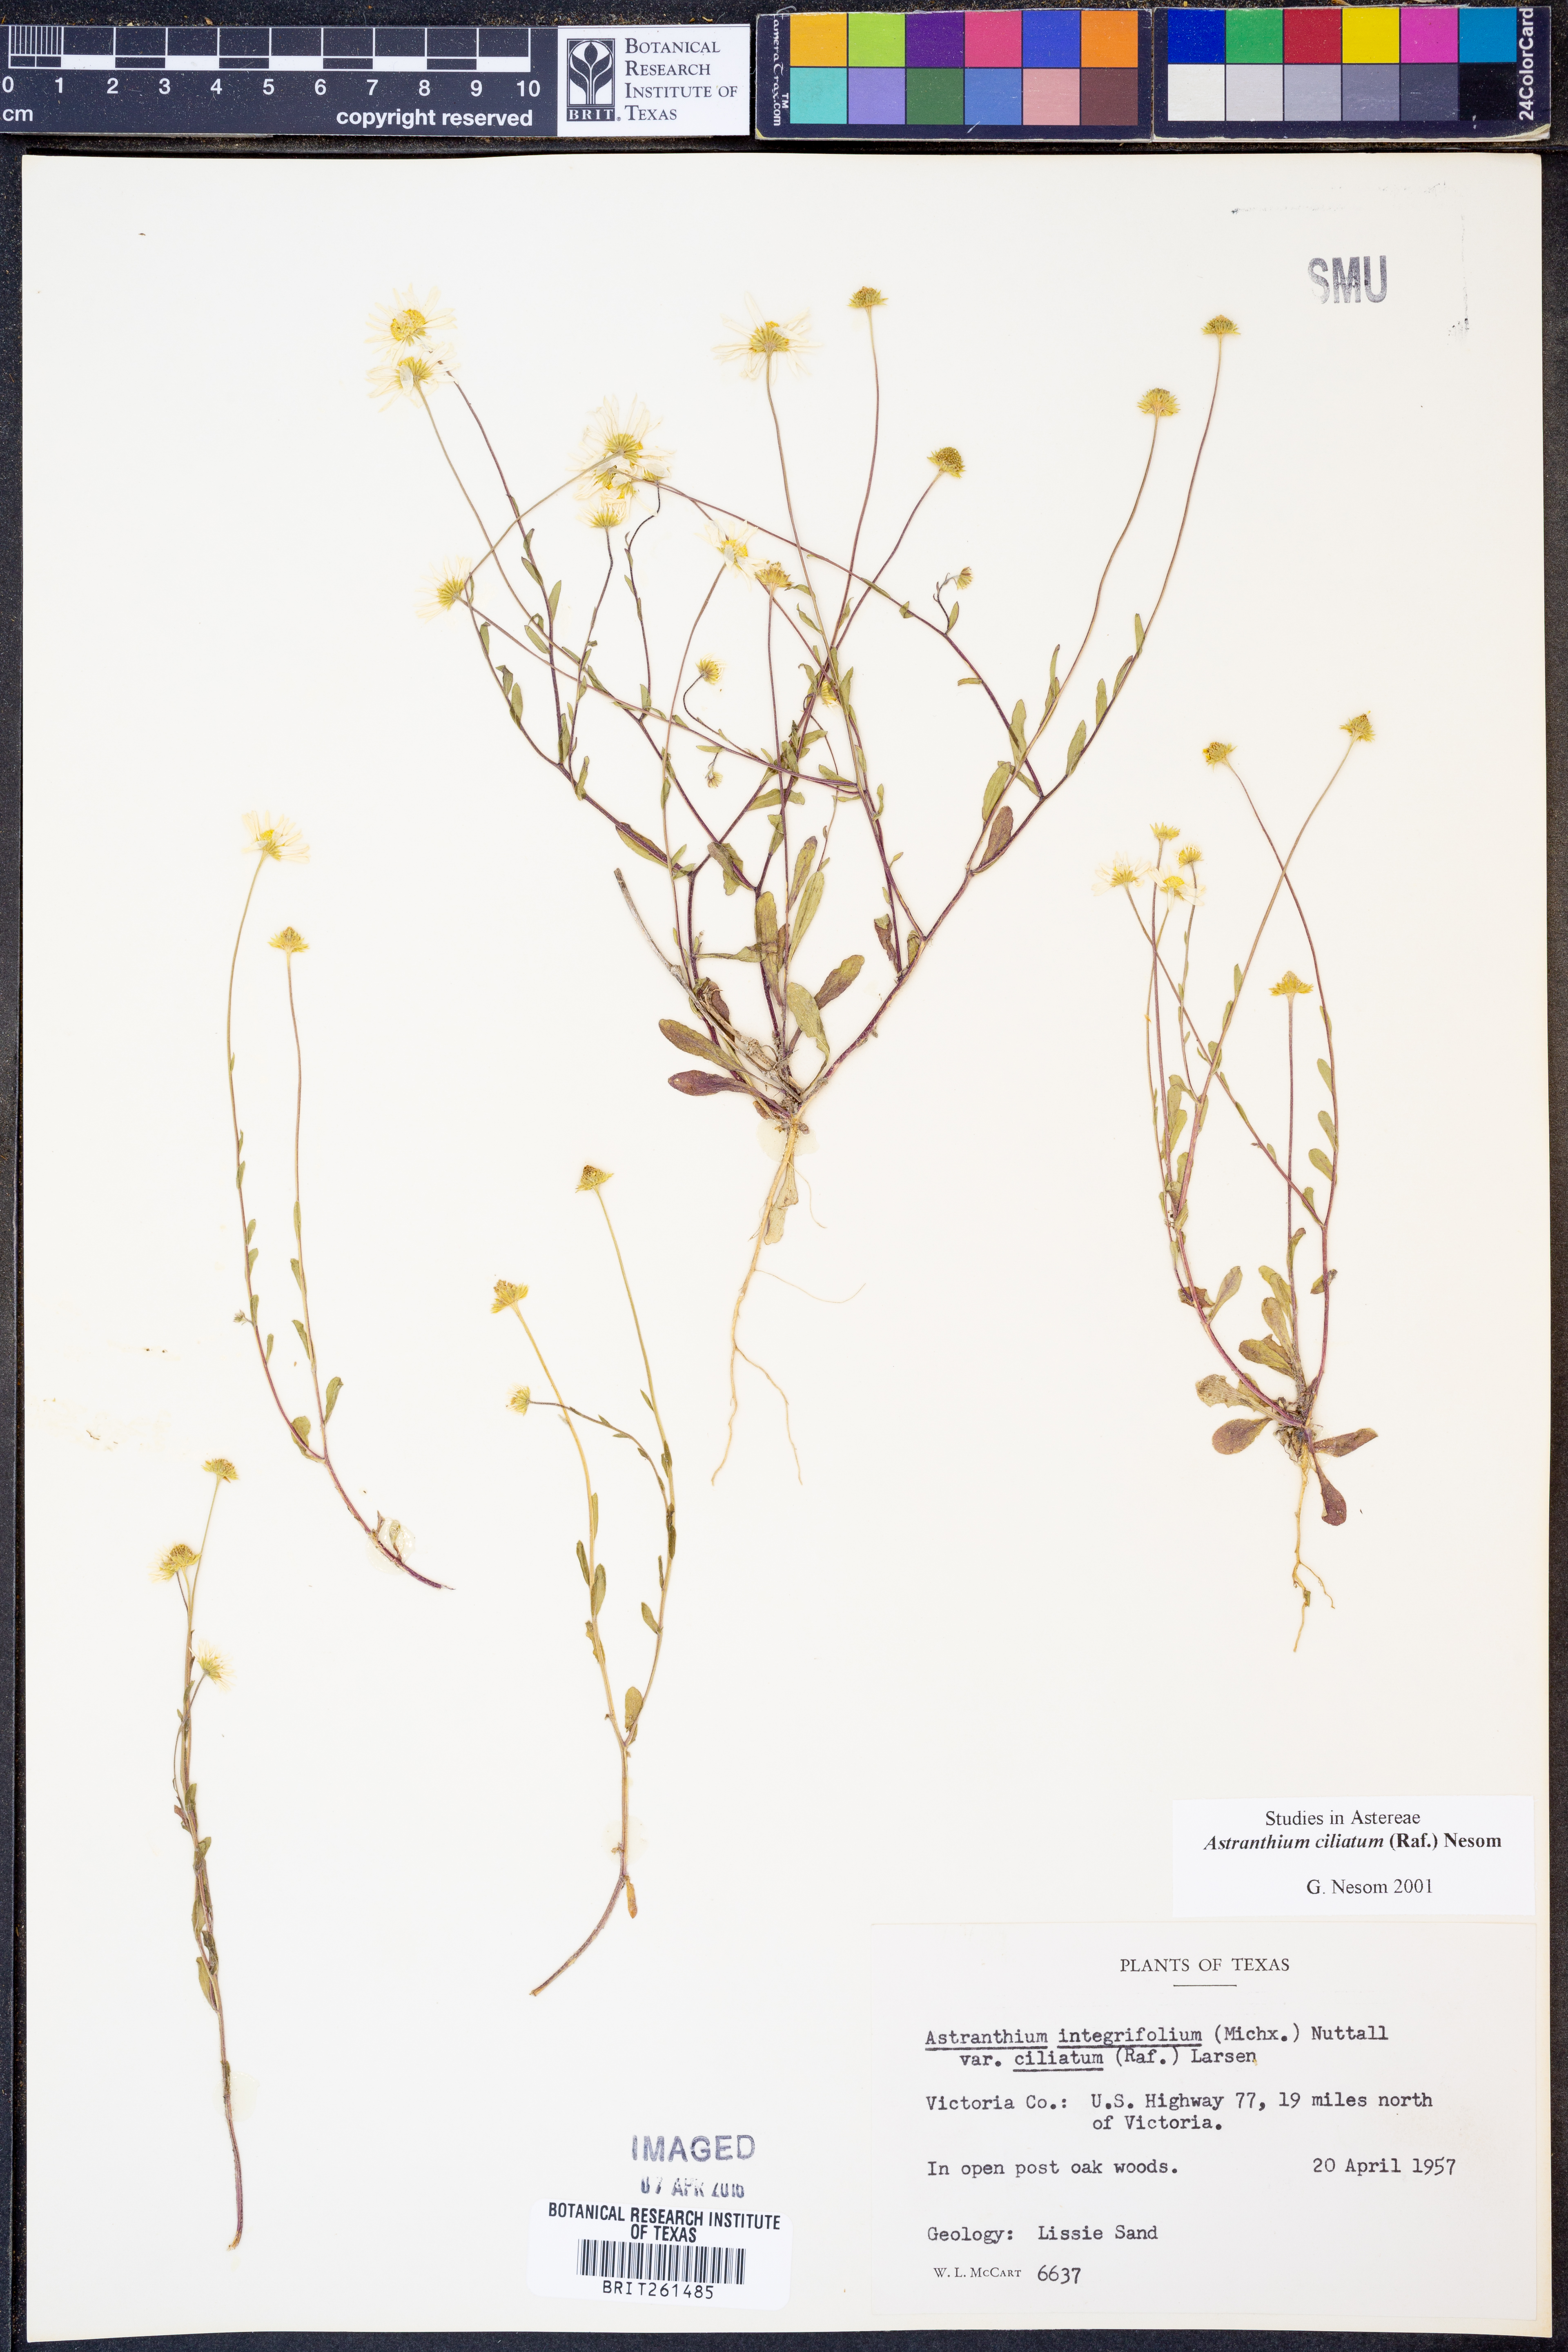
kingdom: Plantae
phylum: Tracheophyta
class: Magnoliopsida
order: Asterales
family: Asteraceae
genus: Astranthium
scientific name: Astranthium ciliatum
